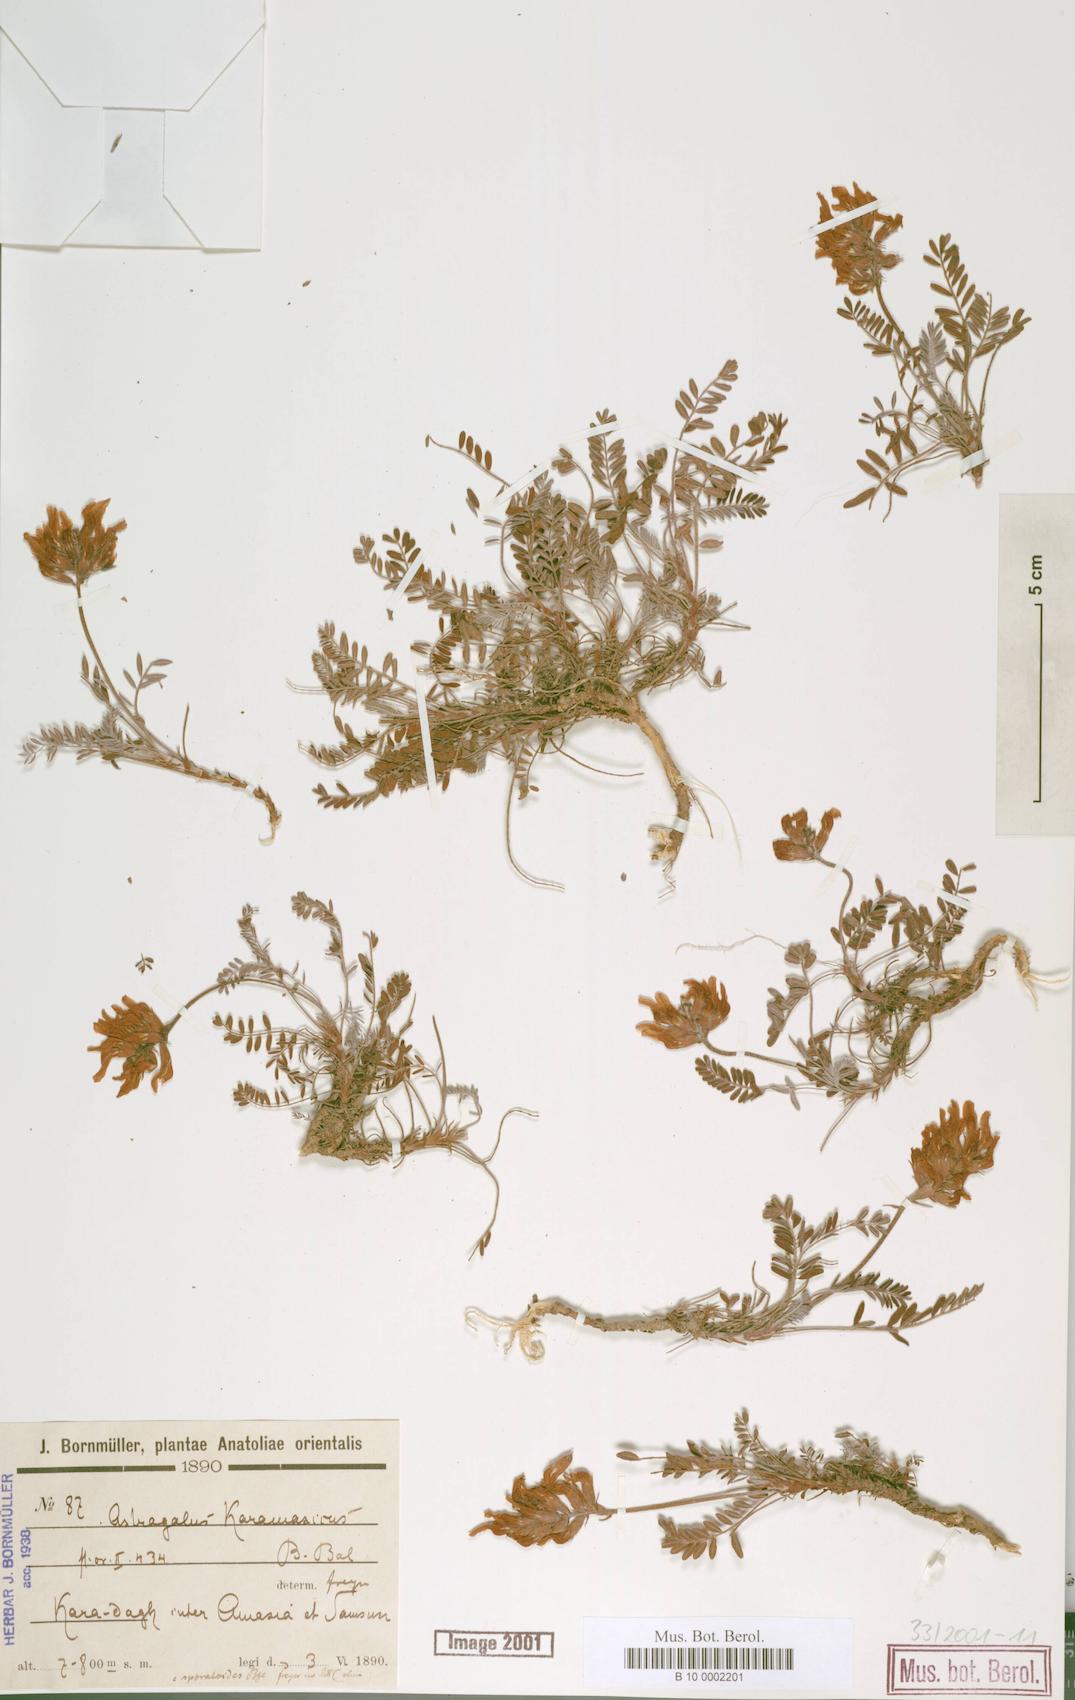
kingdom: Plantae
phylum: Tracheophyta
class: Magnoliopsida
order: Fabales
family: Fabaceae
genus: Astragalus
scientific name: Astragalus rubicundus
